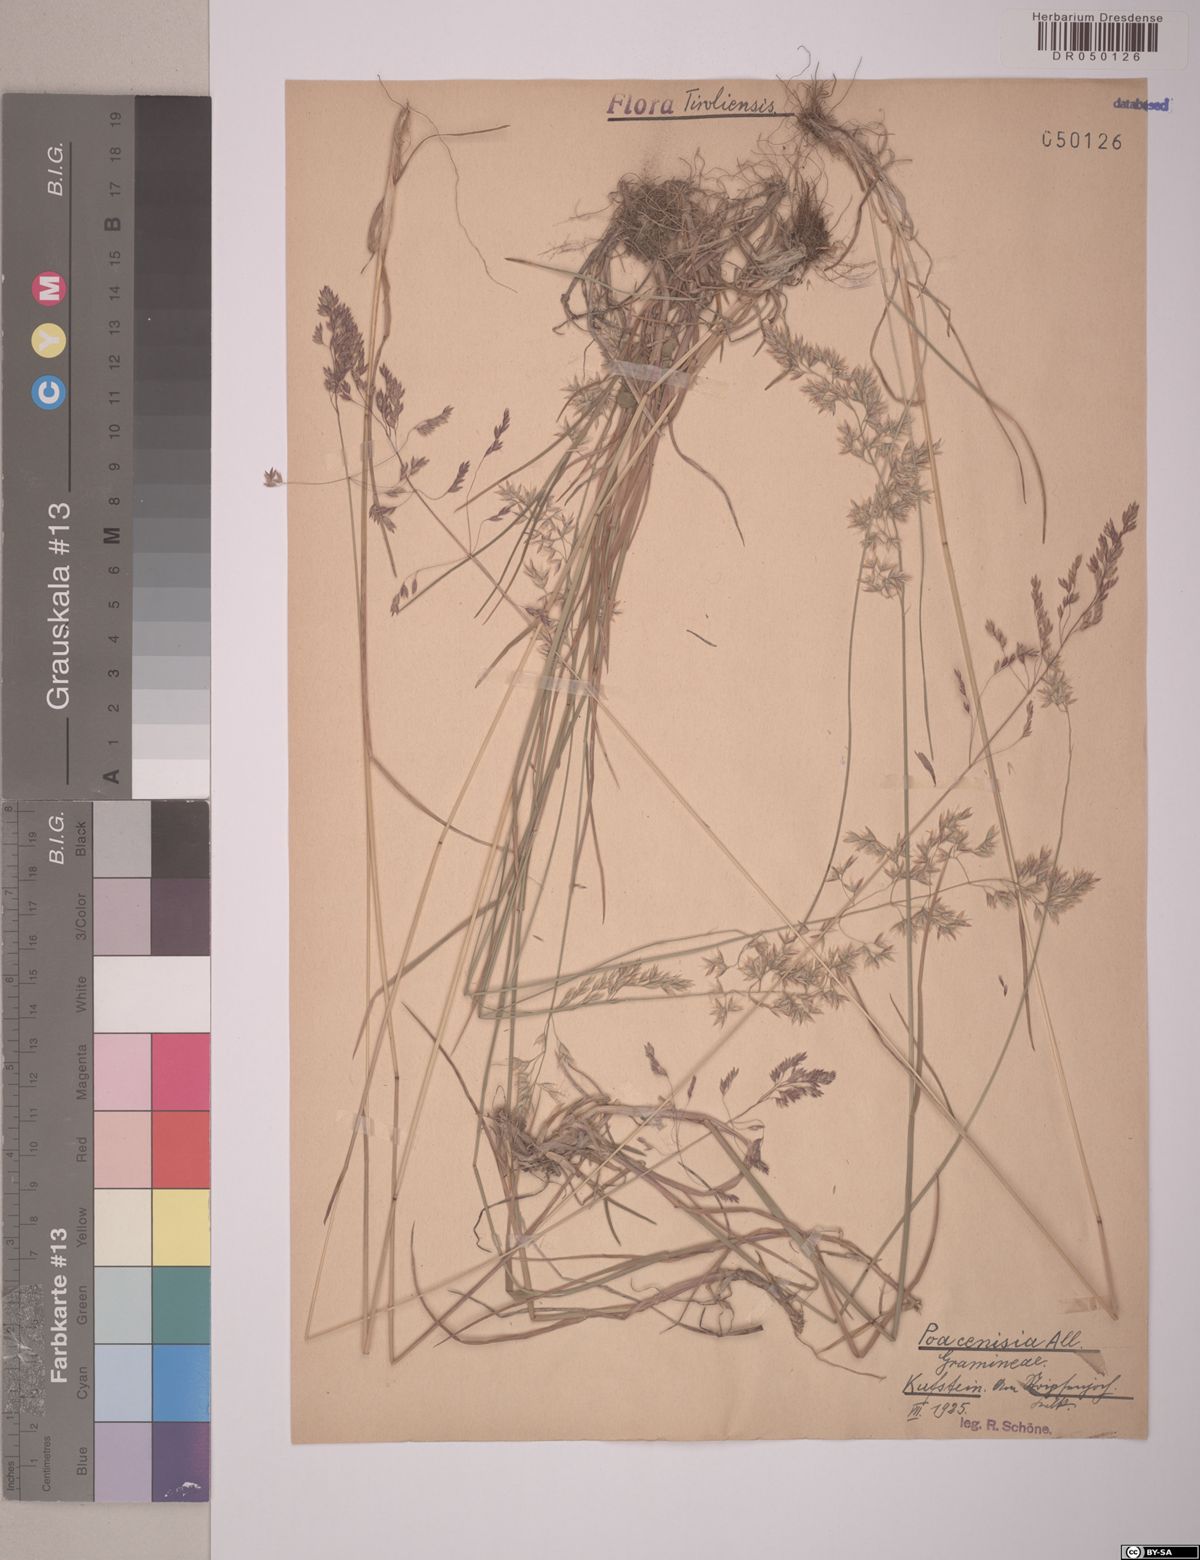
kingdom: Plantae
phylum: Tracheophyta
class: Liliopsida
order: Poales
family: Poaceae
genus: Poa
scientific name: Poa cenisia
